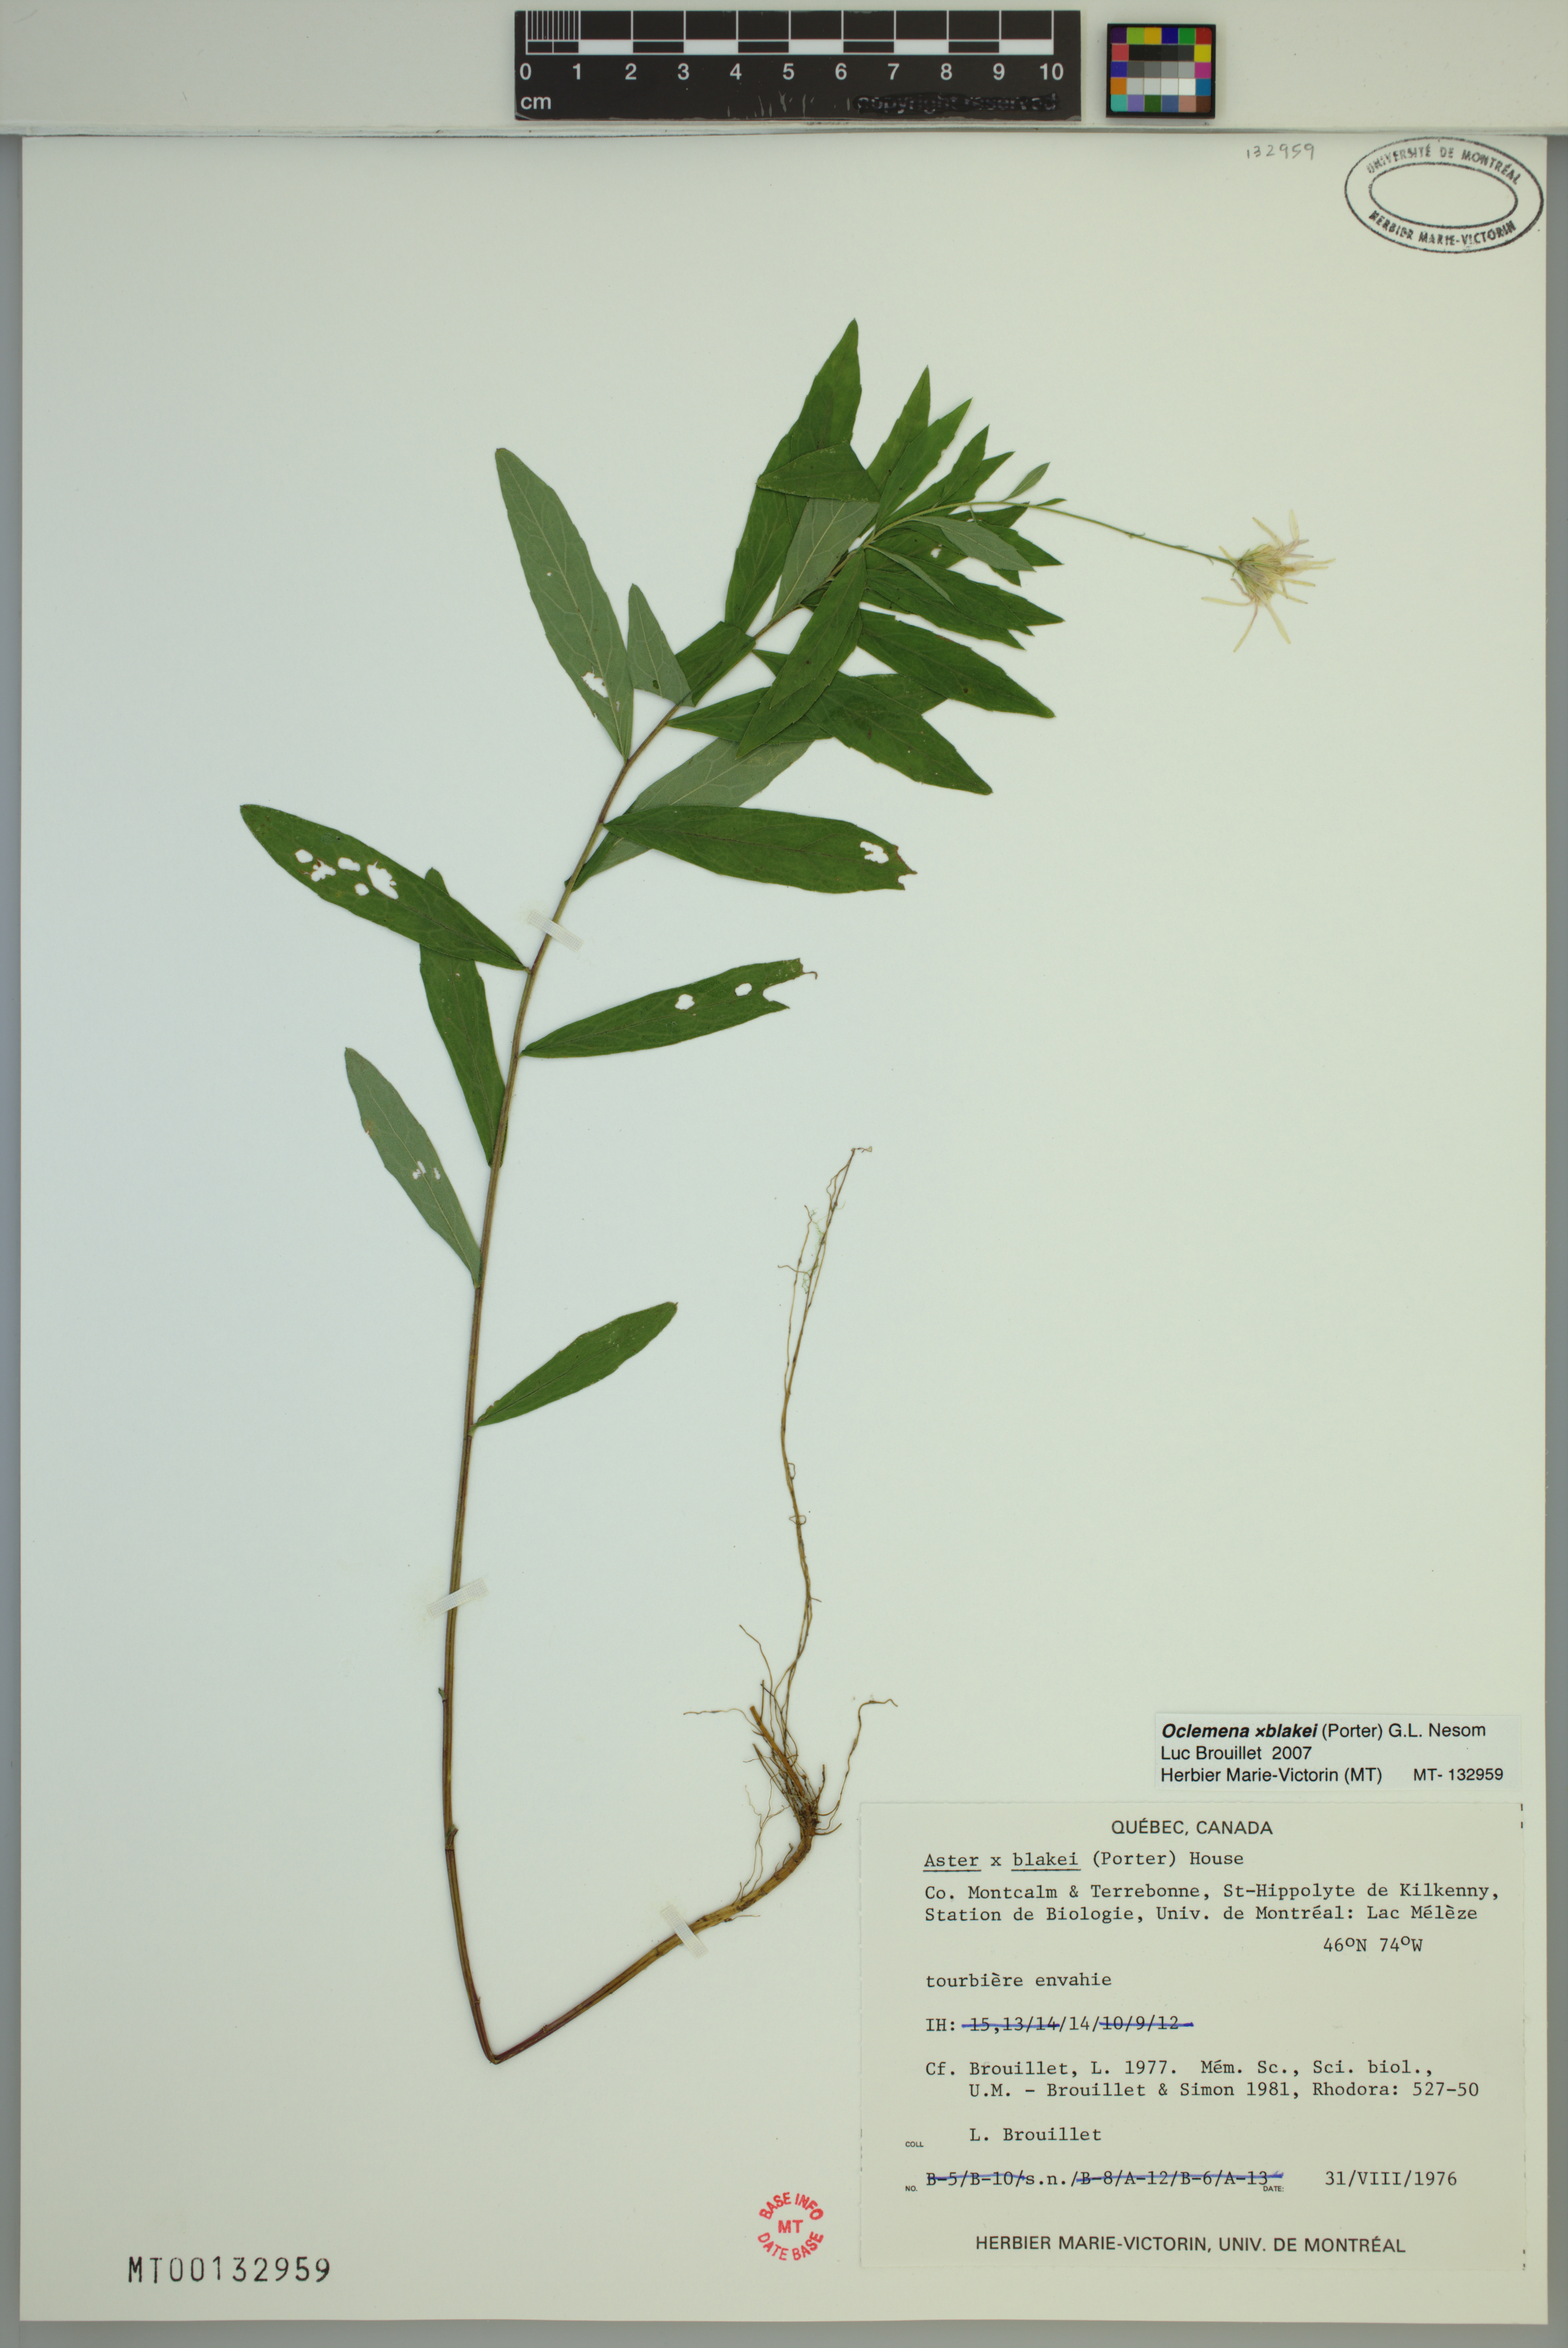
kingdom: Plantae
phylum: Tracheophyta
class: Magnoliopsida
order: Asterales
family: Asteraceae
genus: Oclemena
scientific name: Oclemena blakei
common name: Blake's aster
